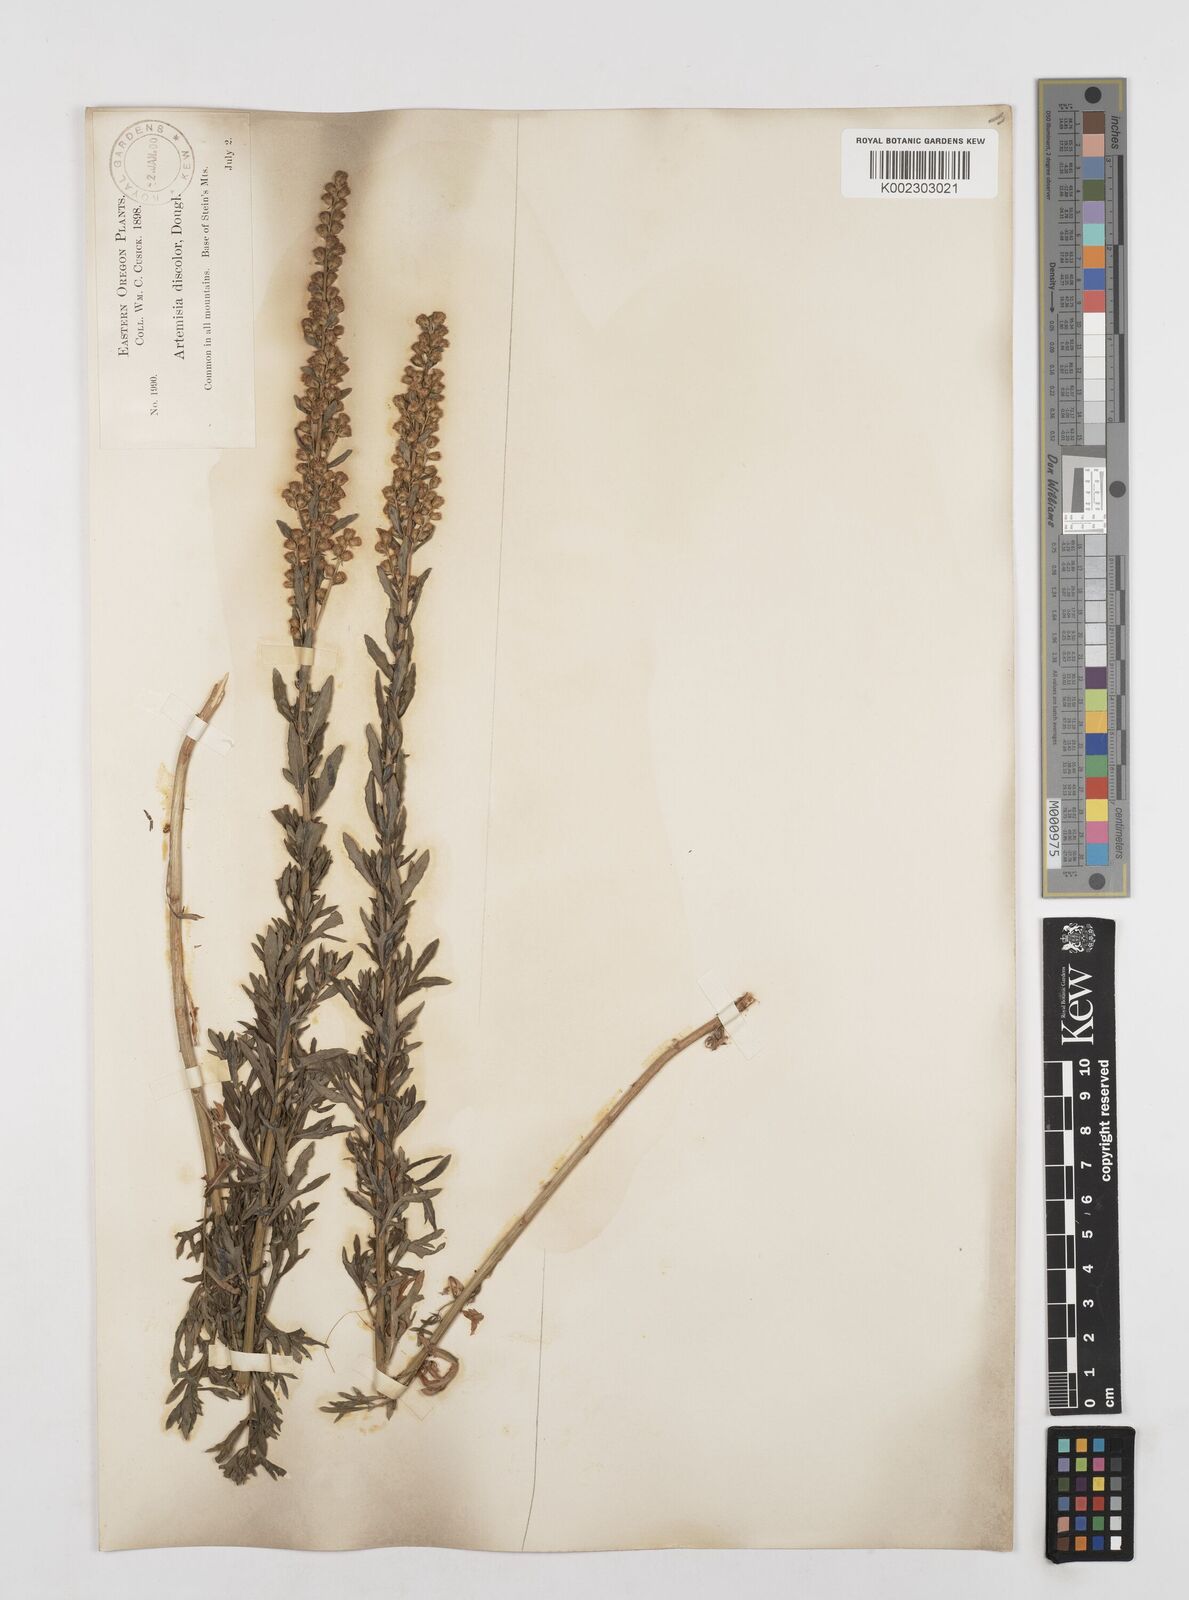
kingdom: Plantae
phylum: Tracheophyta
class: Magnoliopsida
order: Asterales
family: Asteraceae
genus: Artemisia
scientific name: Artemisia michauxiana
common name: Lemon sagewort
